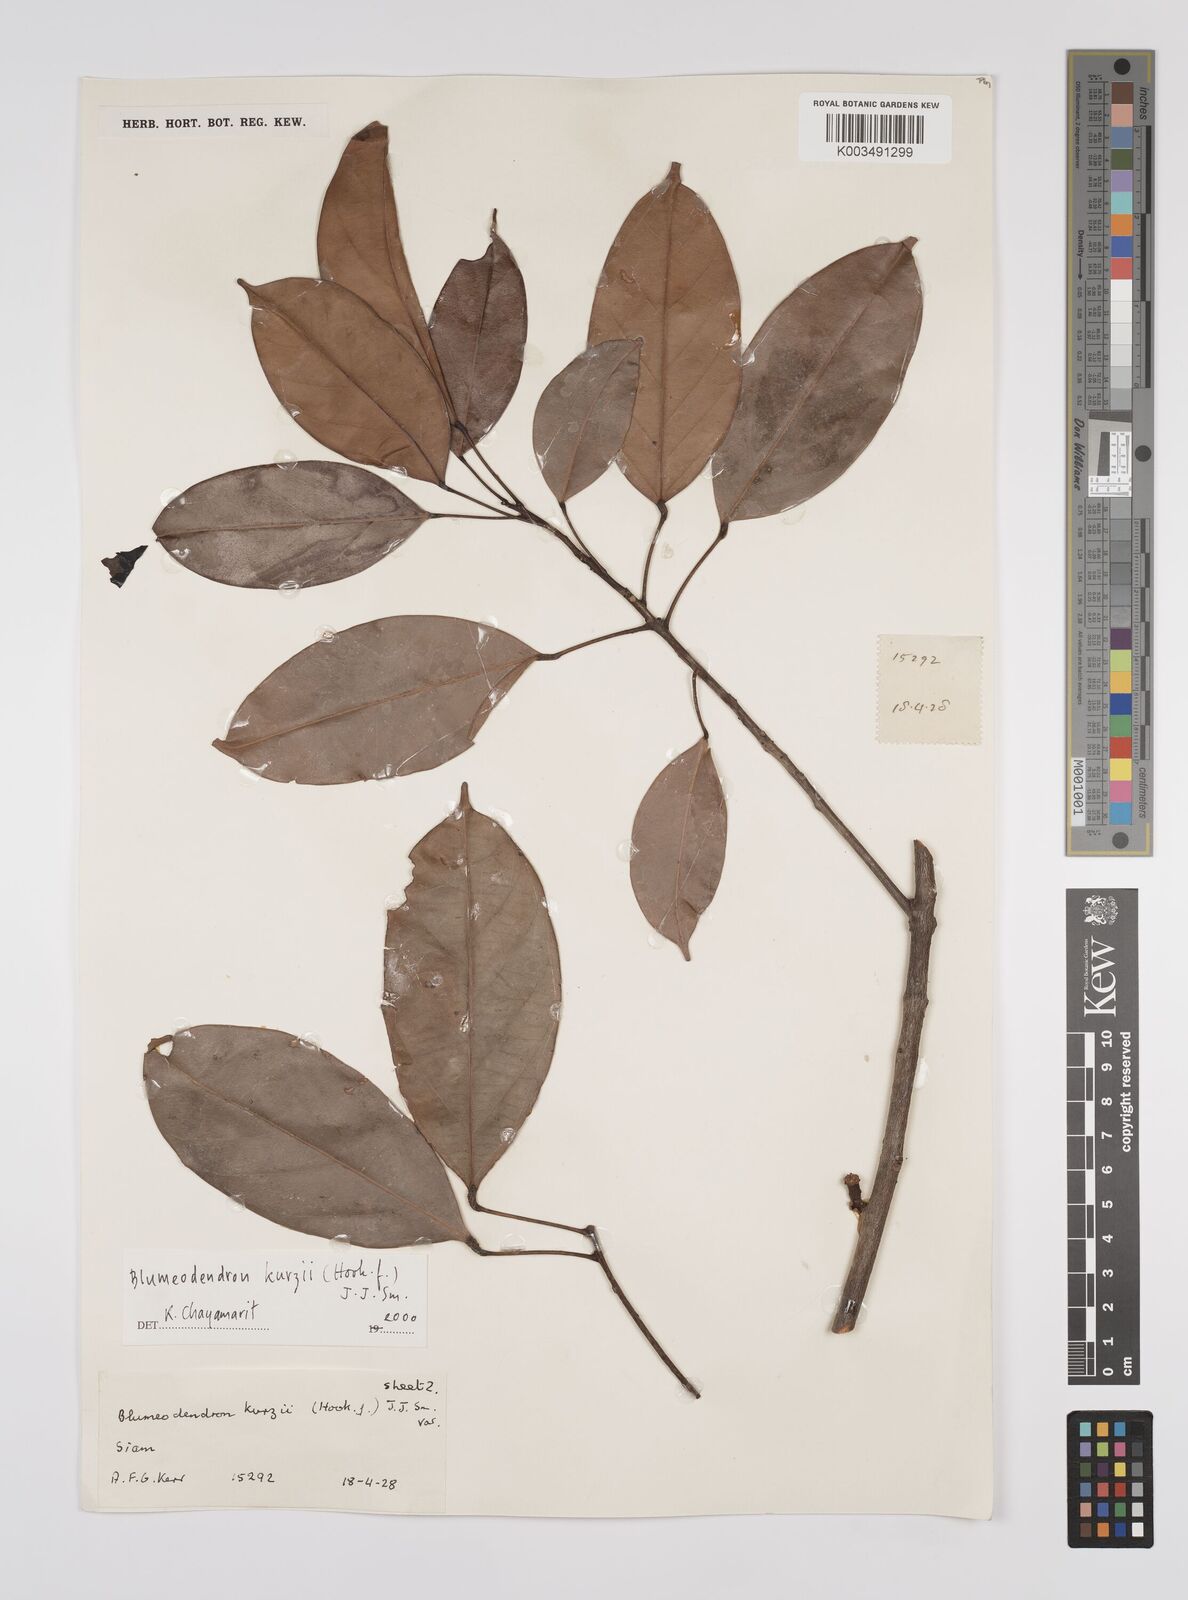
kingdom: Plantae
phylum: Tracheophyta
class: Magnoliopsida
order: Malpighiales
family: Euphorbiaceae
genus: Blumeodendron
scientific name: Blumeodendron kurzii
